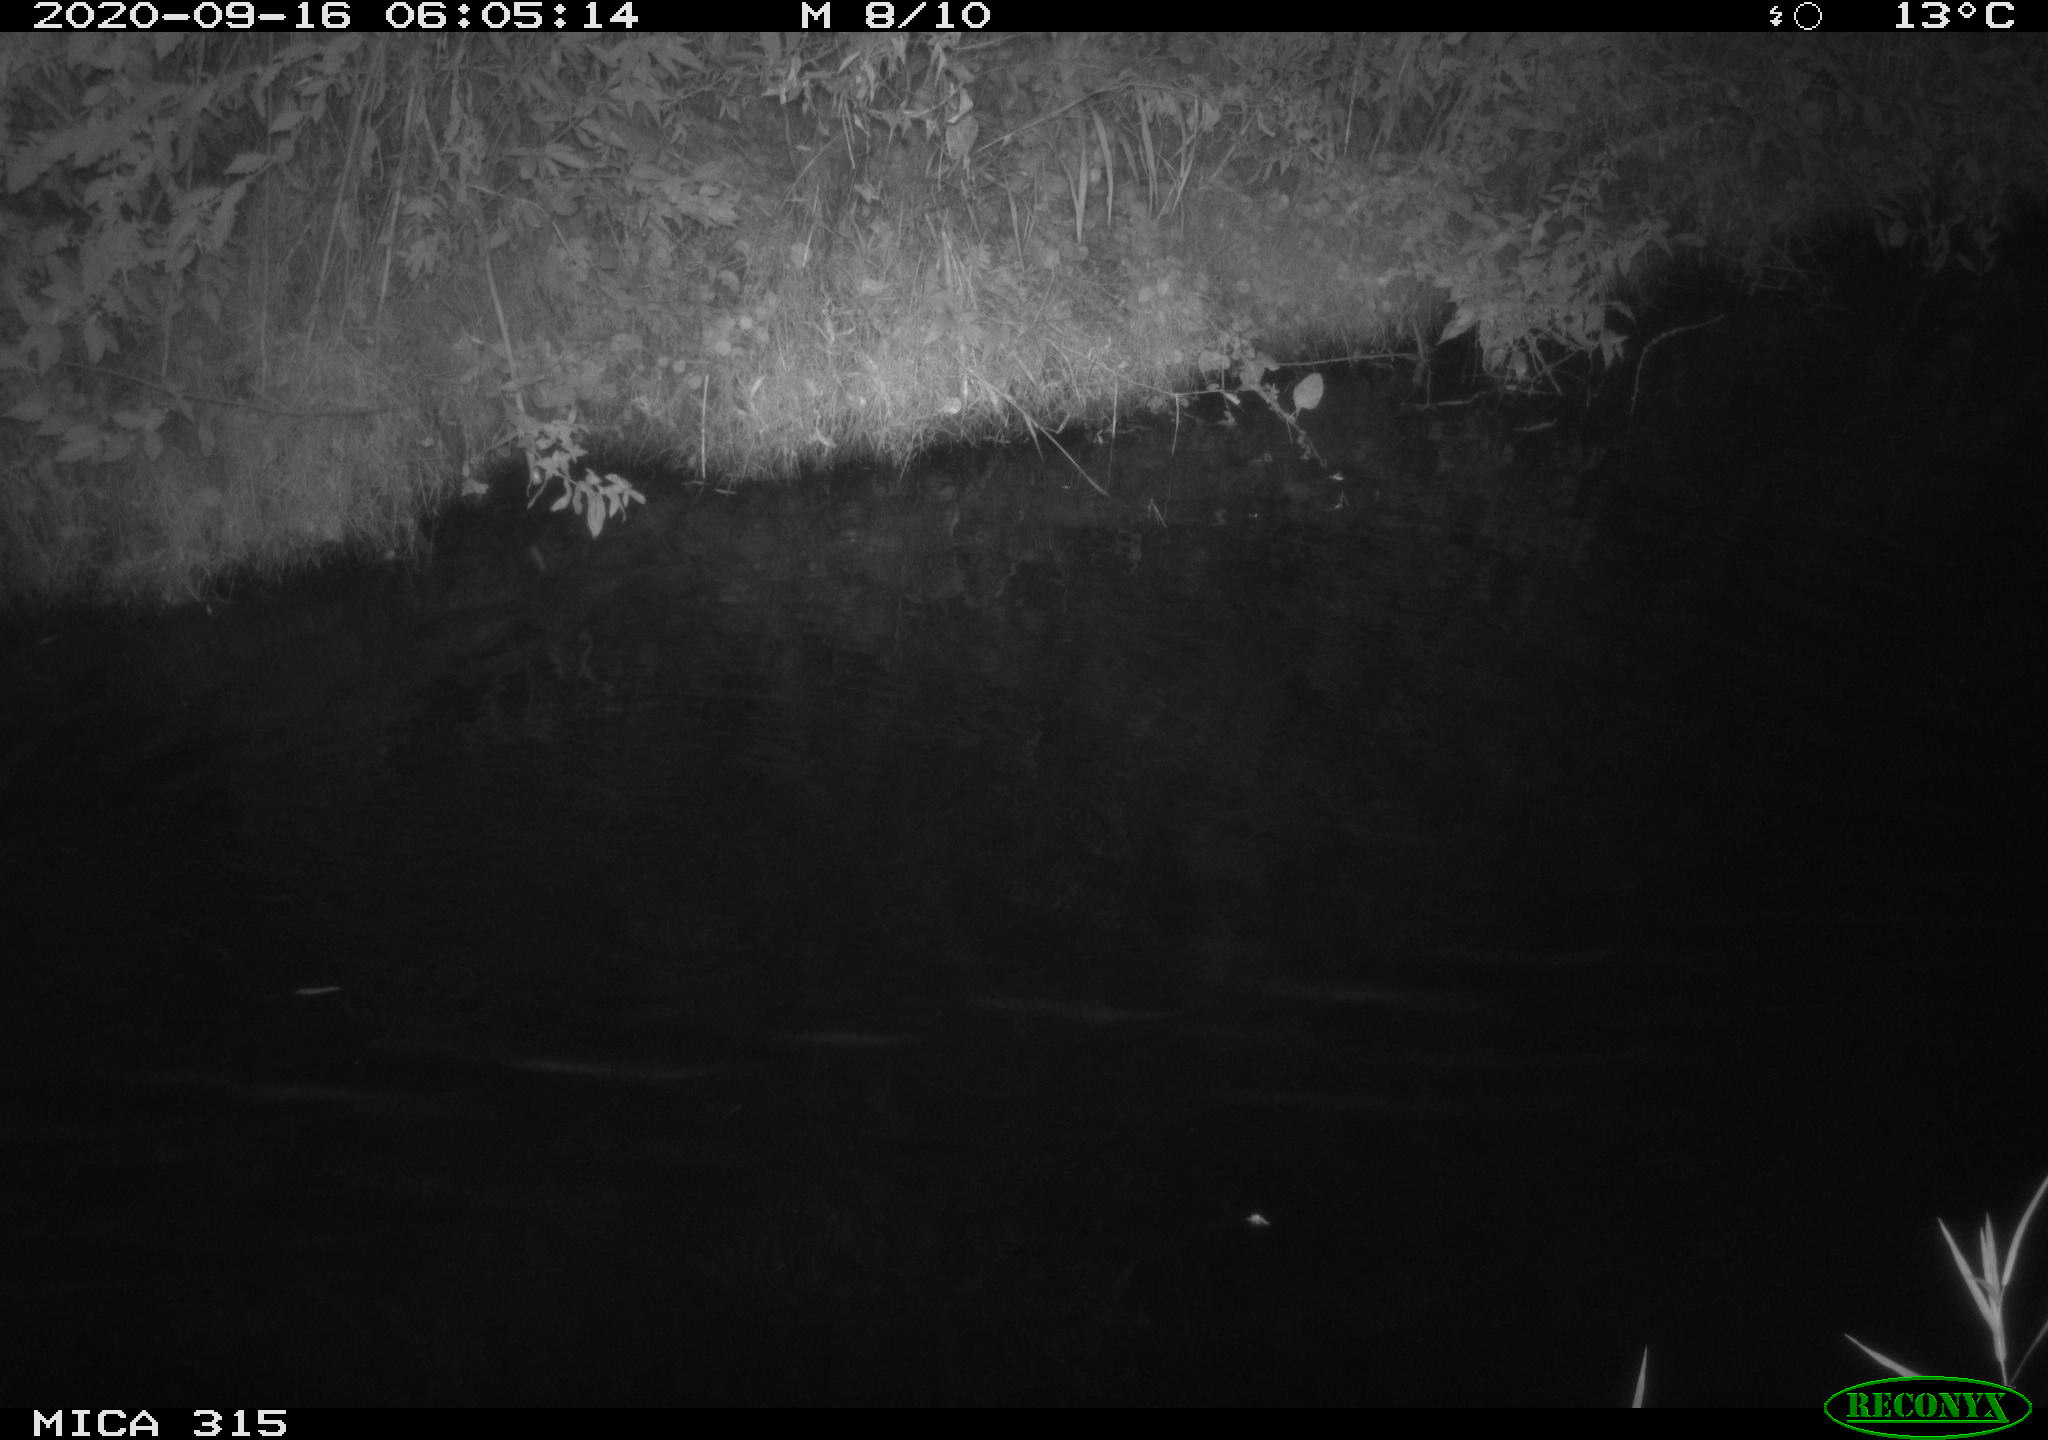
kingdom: Animalia
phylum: Chordata
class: Aves
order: Anseriformes
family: Anatidae
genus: Anas
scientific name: Anas platyrhynchos
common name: Mallard
